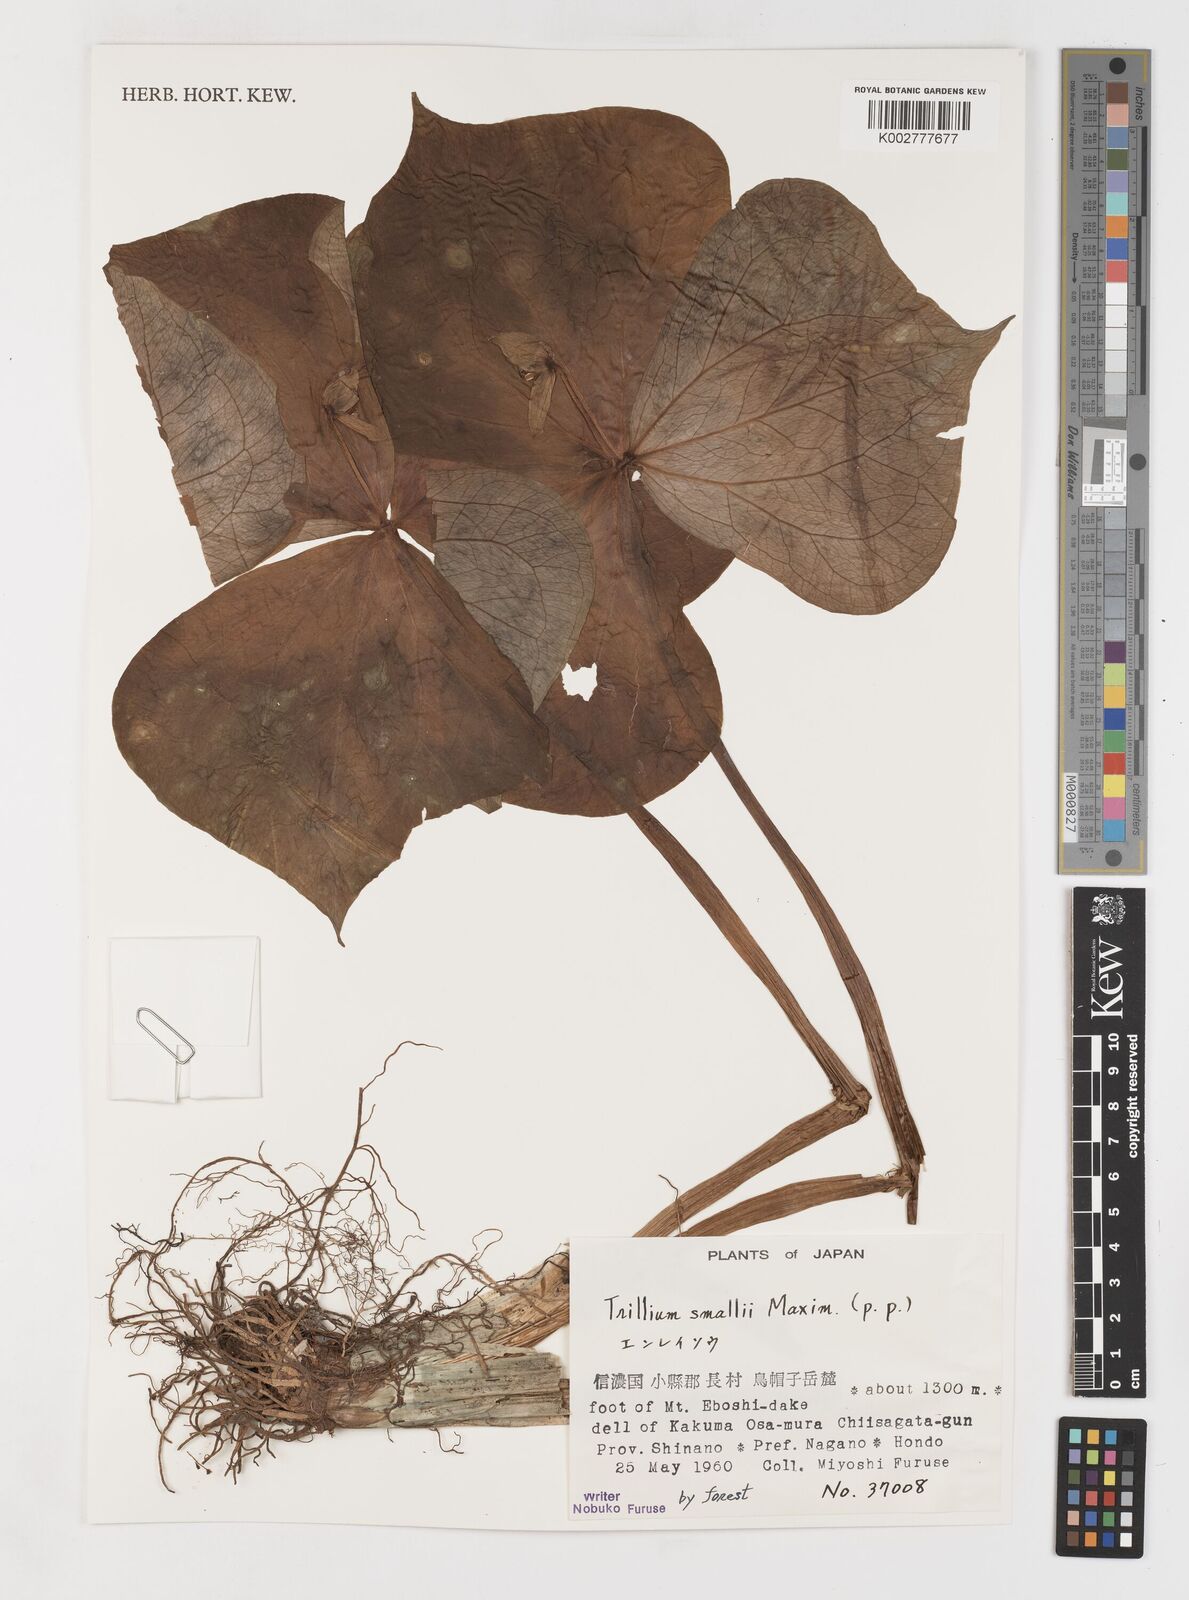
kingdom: Plantae
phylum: Tracheophyta
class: Liliopsida
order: Liliales
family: Melanthiaceae
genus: Trillium
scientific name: Trillium smallii
